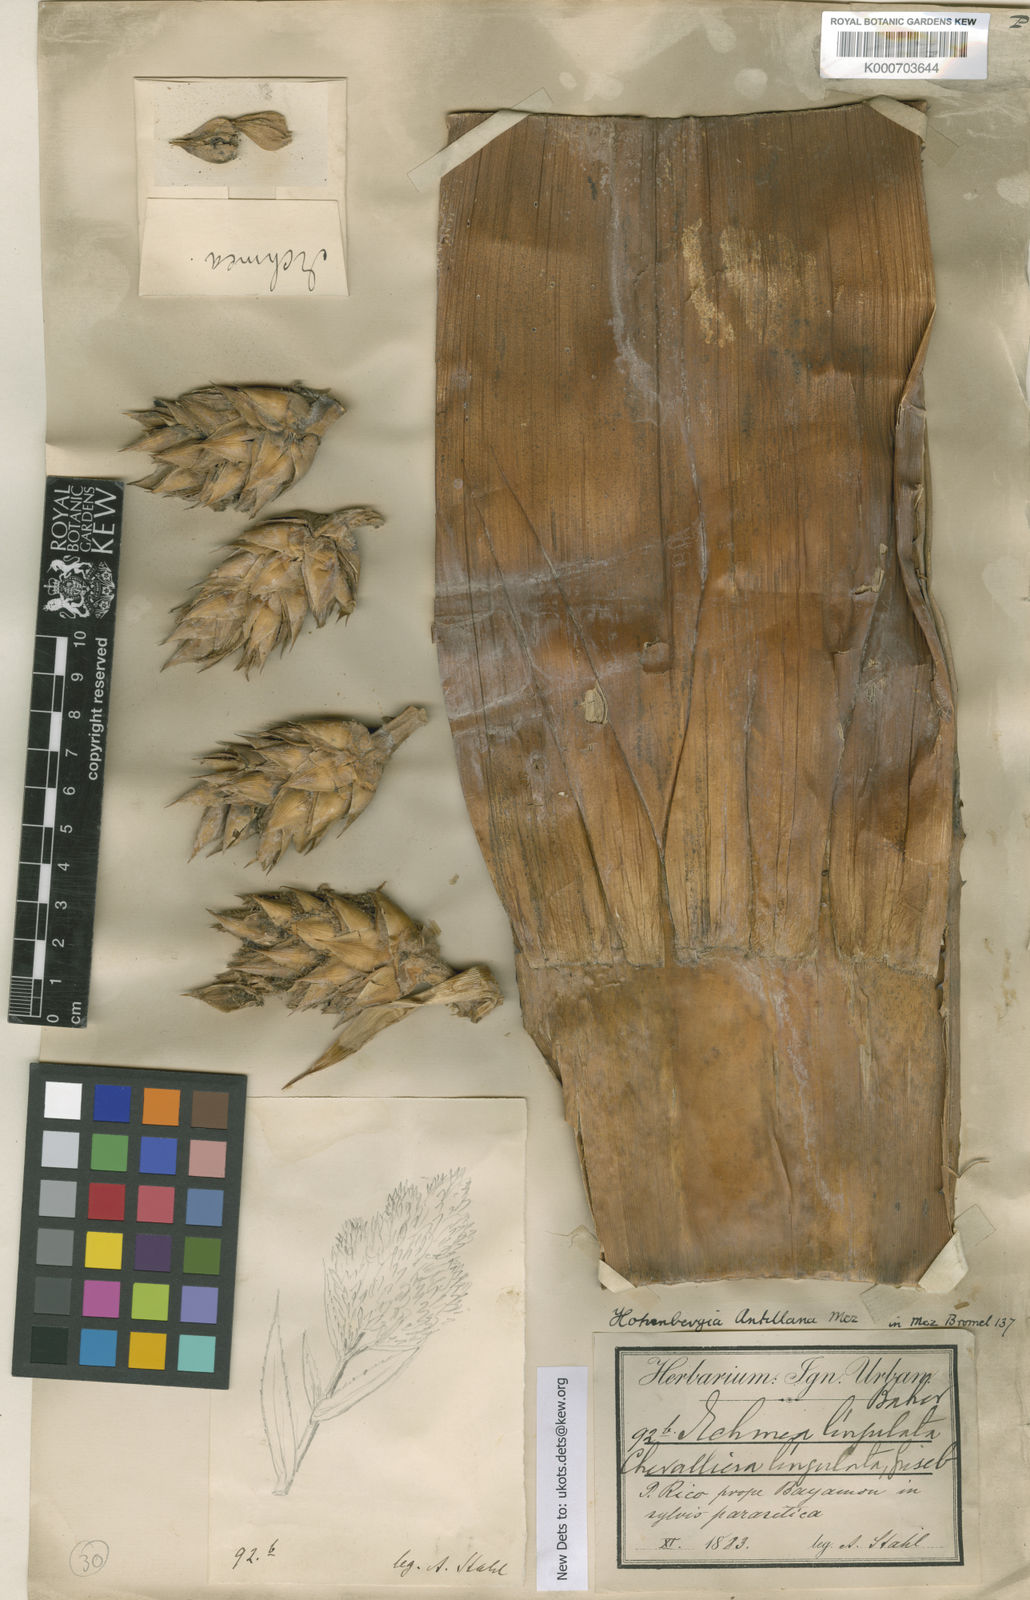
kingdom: Plantae
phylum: Tracheophyta
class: Liliopsida
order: Poales
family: Bromeliaceae
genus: Wittmackia
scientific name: Wittmackia antillana
